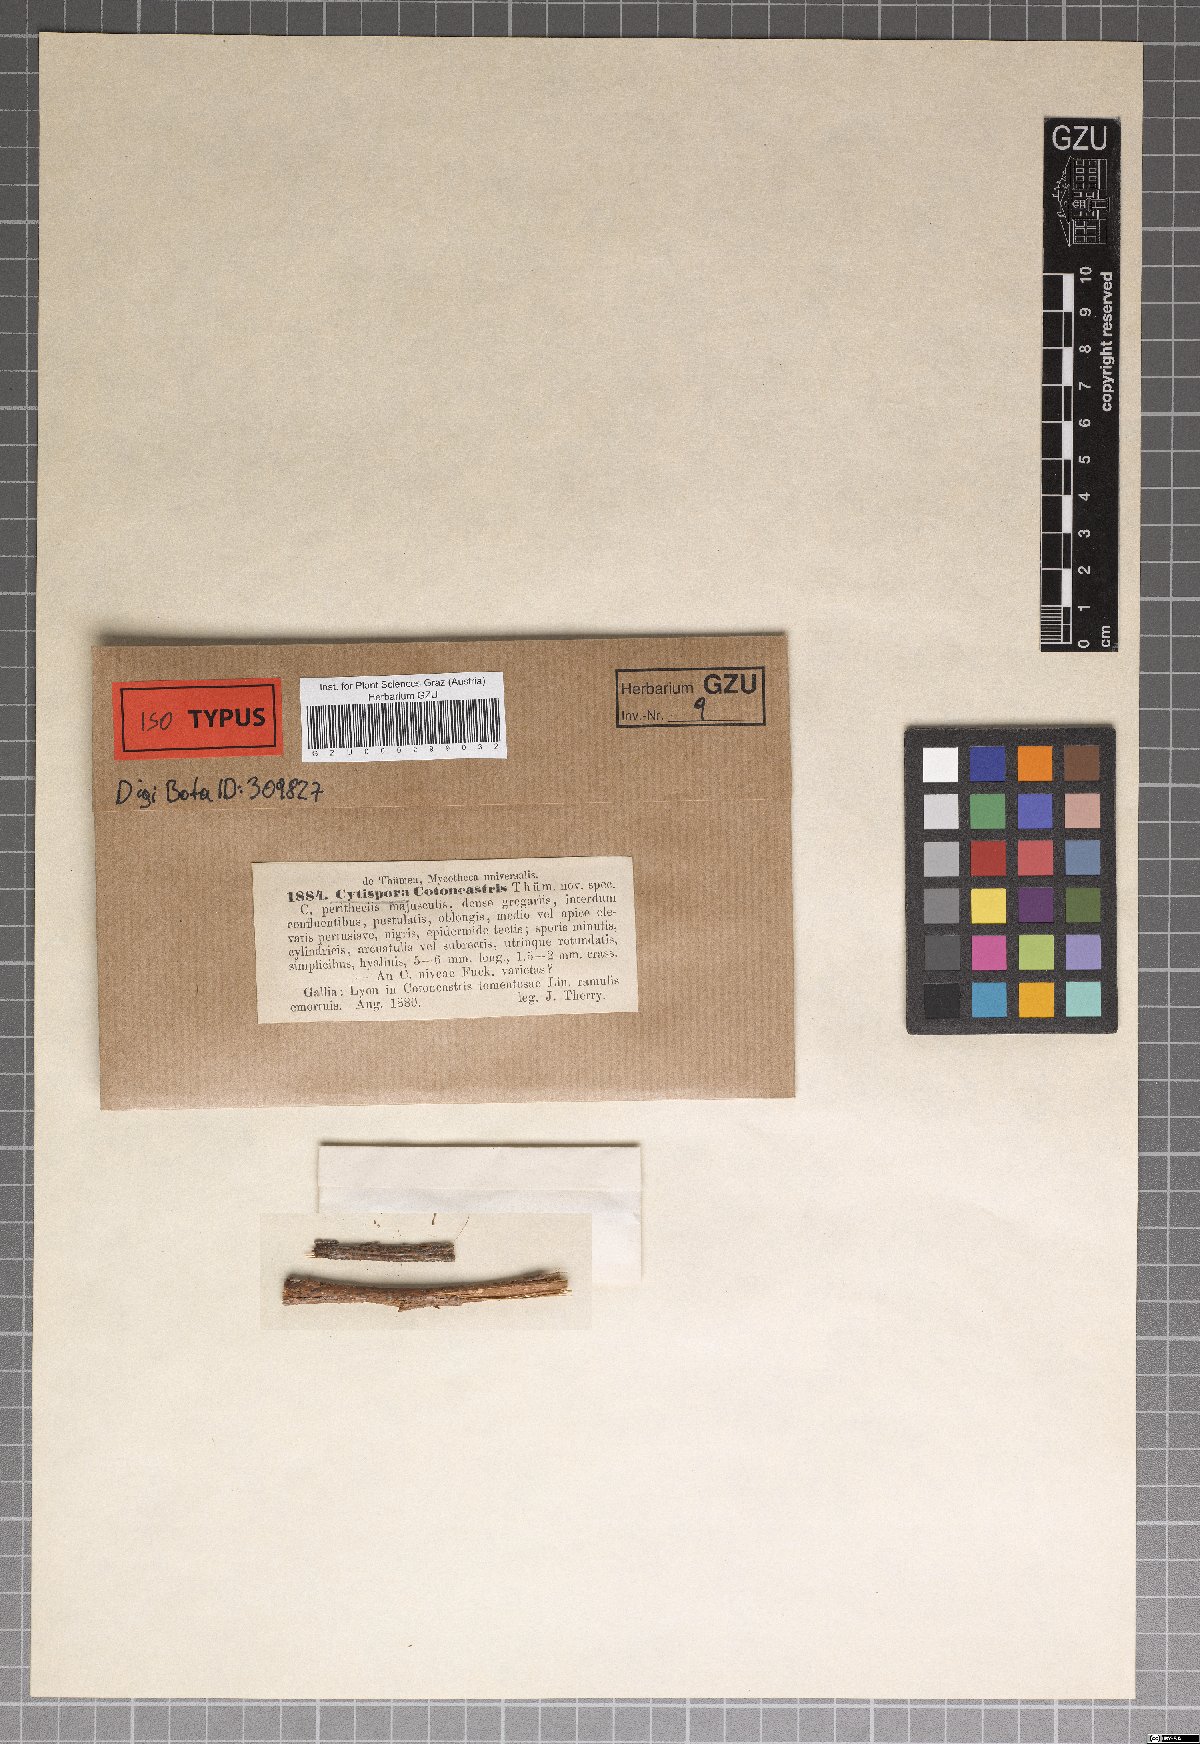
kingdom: Fungi
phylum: Ascomycota
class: Sordariomycetes
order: Diaporthales
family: Valsaceae
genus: Cytospora
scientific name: Cytospora
